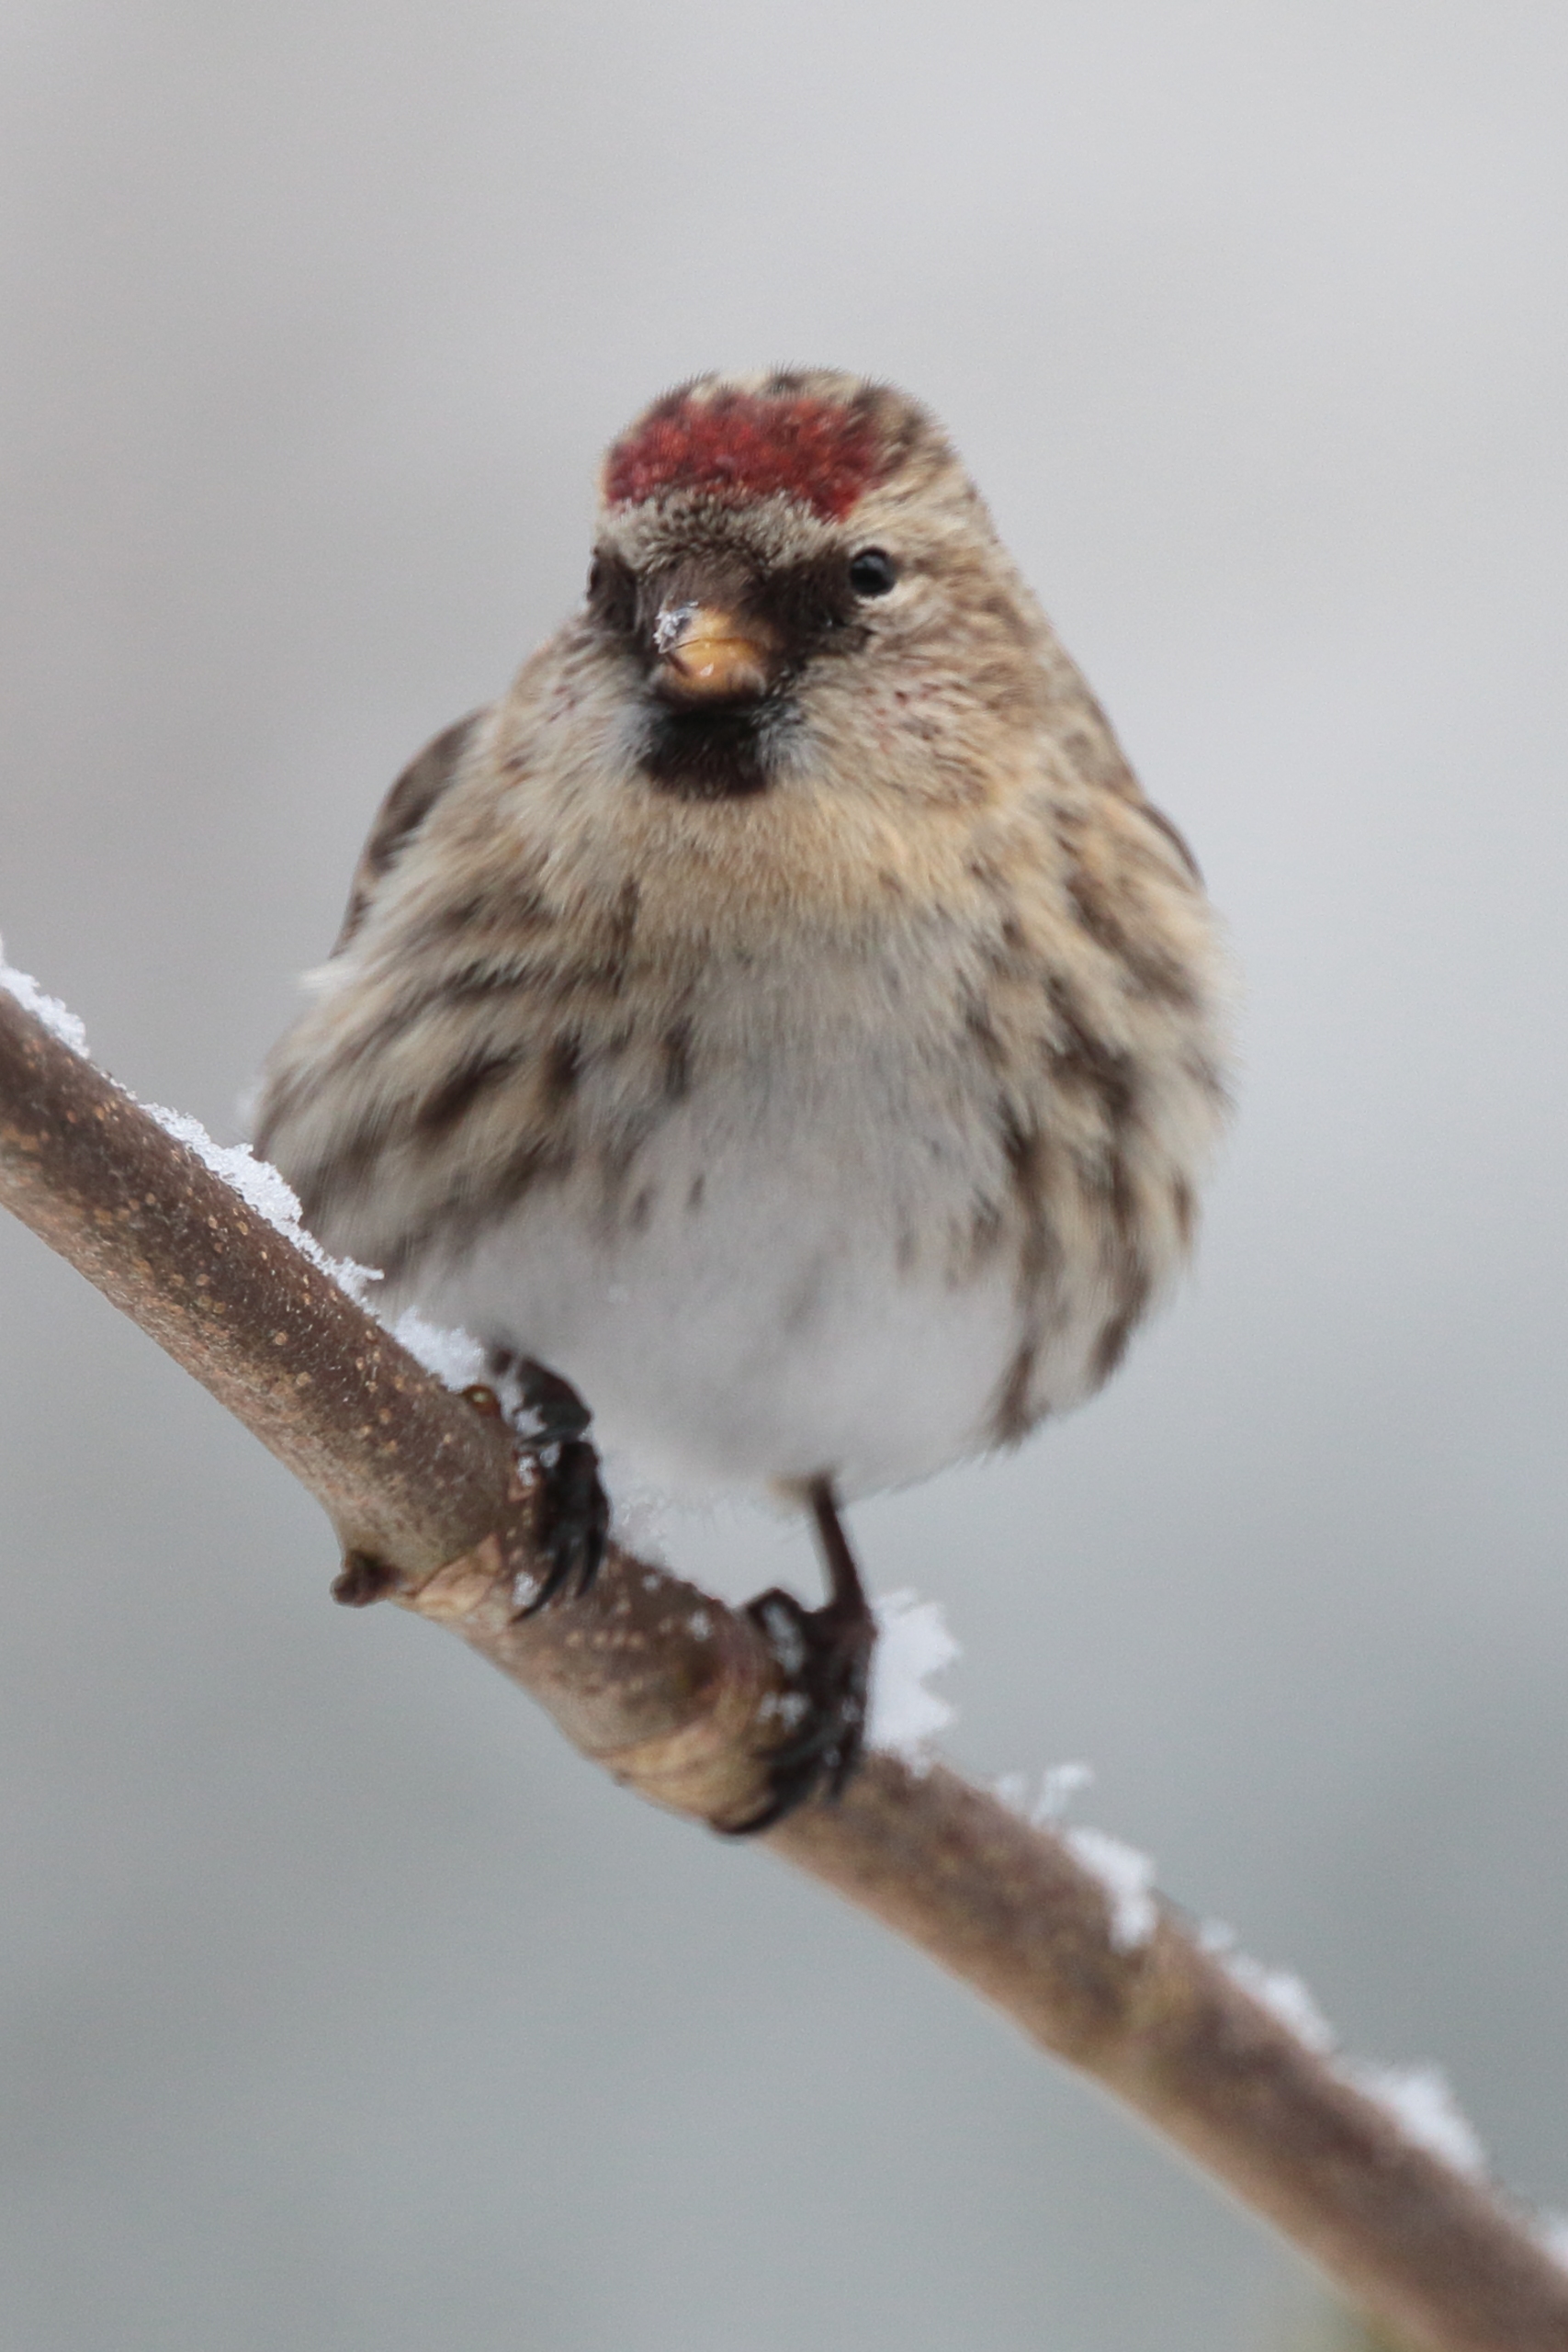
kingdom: Animalia
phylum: Chordata
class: Aves
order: Passeriformes
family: Fringillidae
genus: Acanthis
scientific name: Acanthis flammea
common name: Nordlig gråsisken
